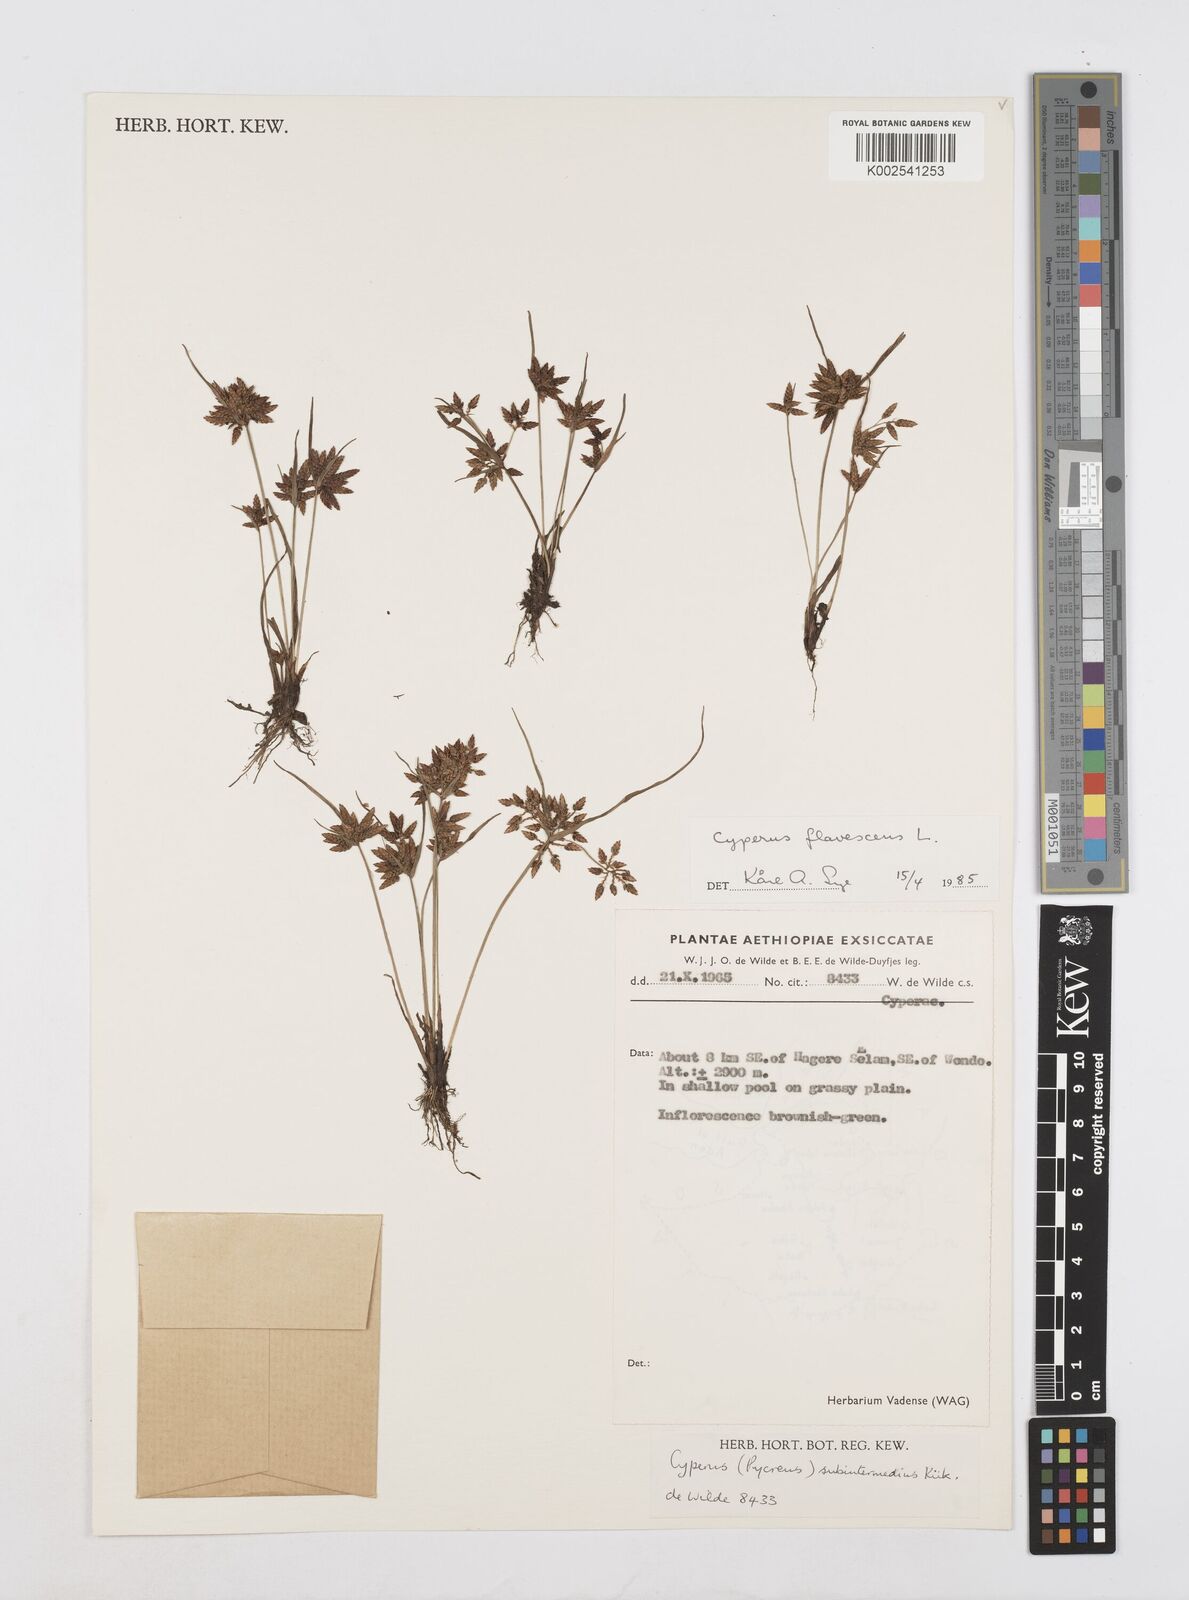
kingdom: Plantae
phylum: Tracheophyta
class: Liliopsida
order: Poales
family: Cyperaceae
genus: Cyperus
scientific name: Cyperus flavescens
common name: Yellow galingale
